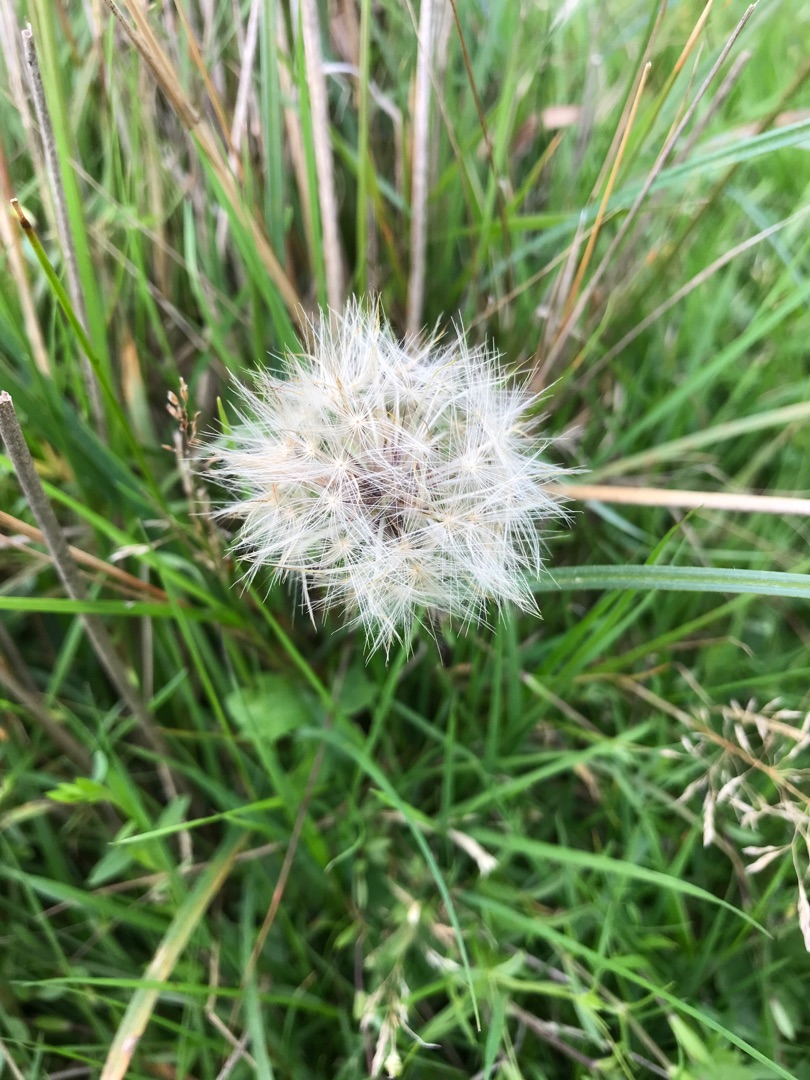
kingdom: Plantae
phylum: Tracheophyta
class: Magnoliopsida
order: Asterales
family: Asteraceae
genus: Tragopogon
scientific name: Tragopogon pratensis
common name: Gedeskæg
